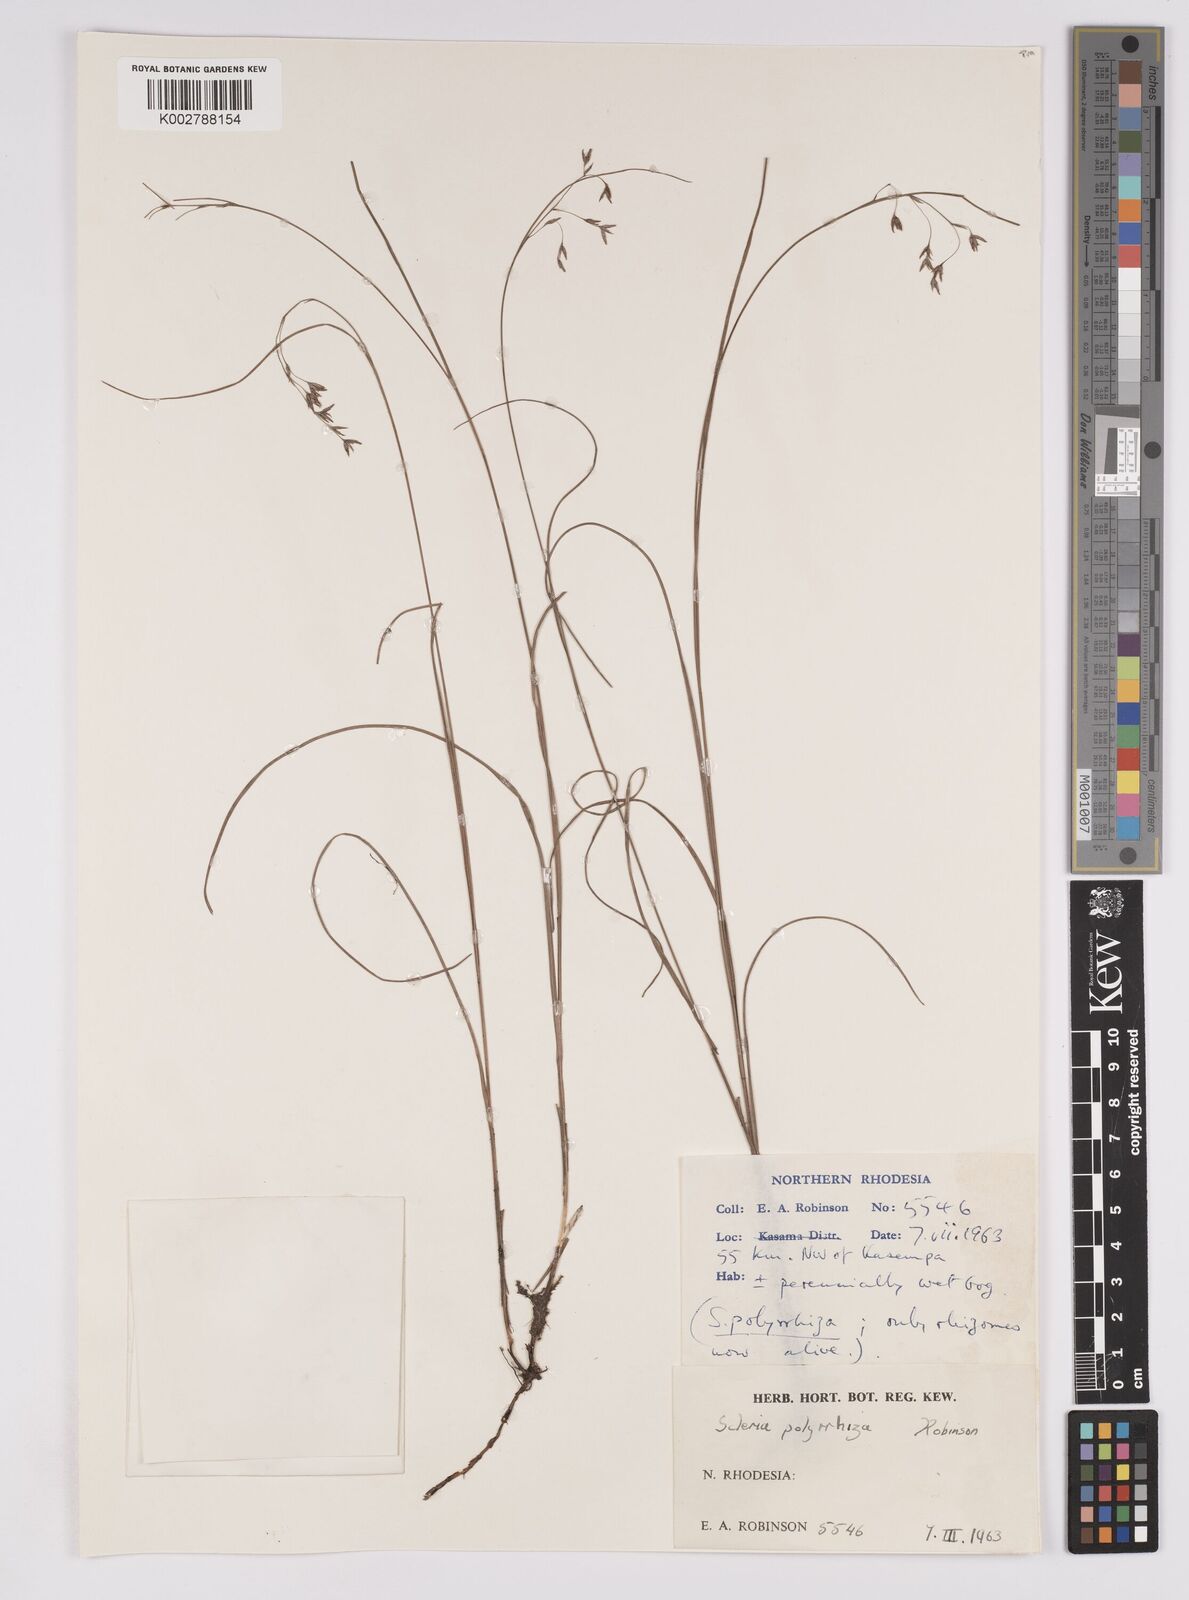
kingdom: Plantae
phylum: Tracheophyta
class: Liliopsida
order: Poales
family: Cyperaceae
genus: Scleria
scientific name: Scleria polyrrhiza
